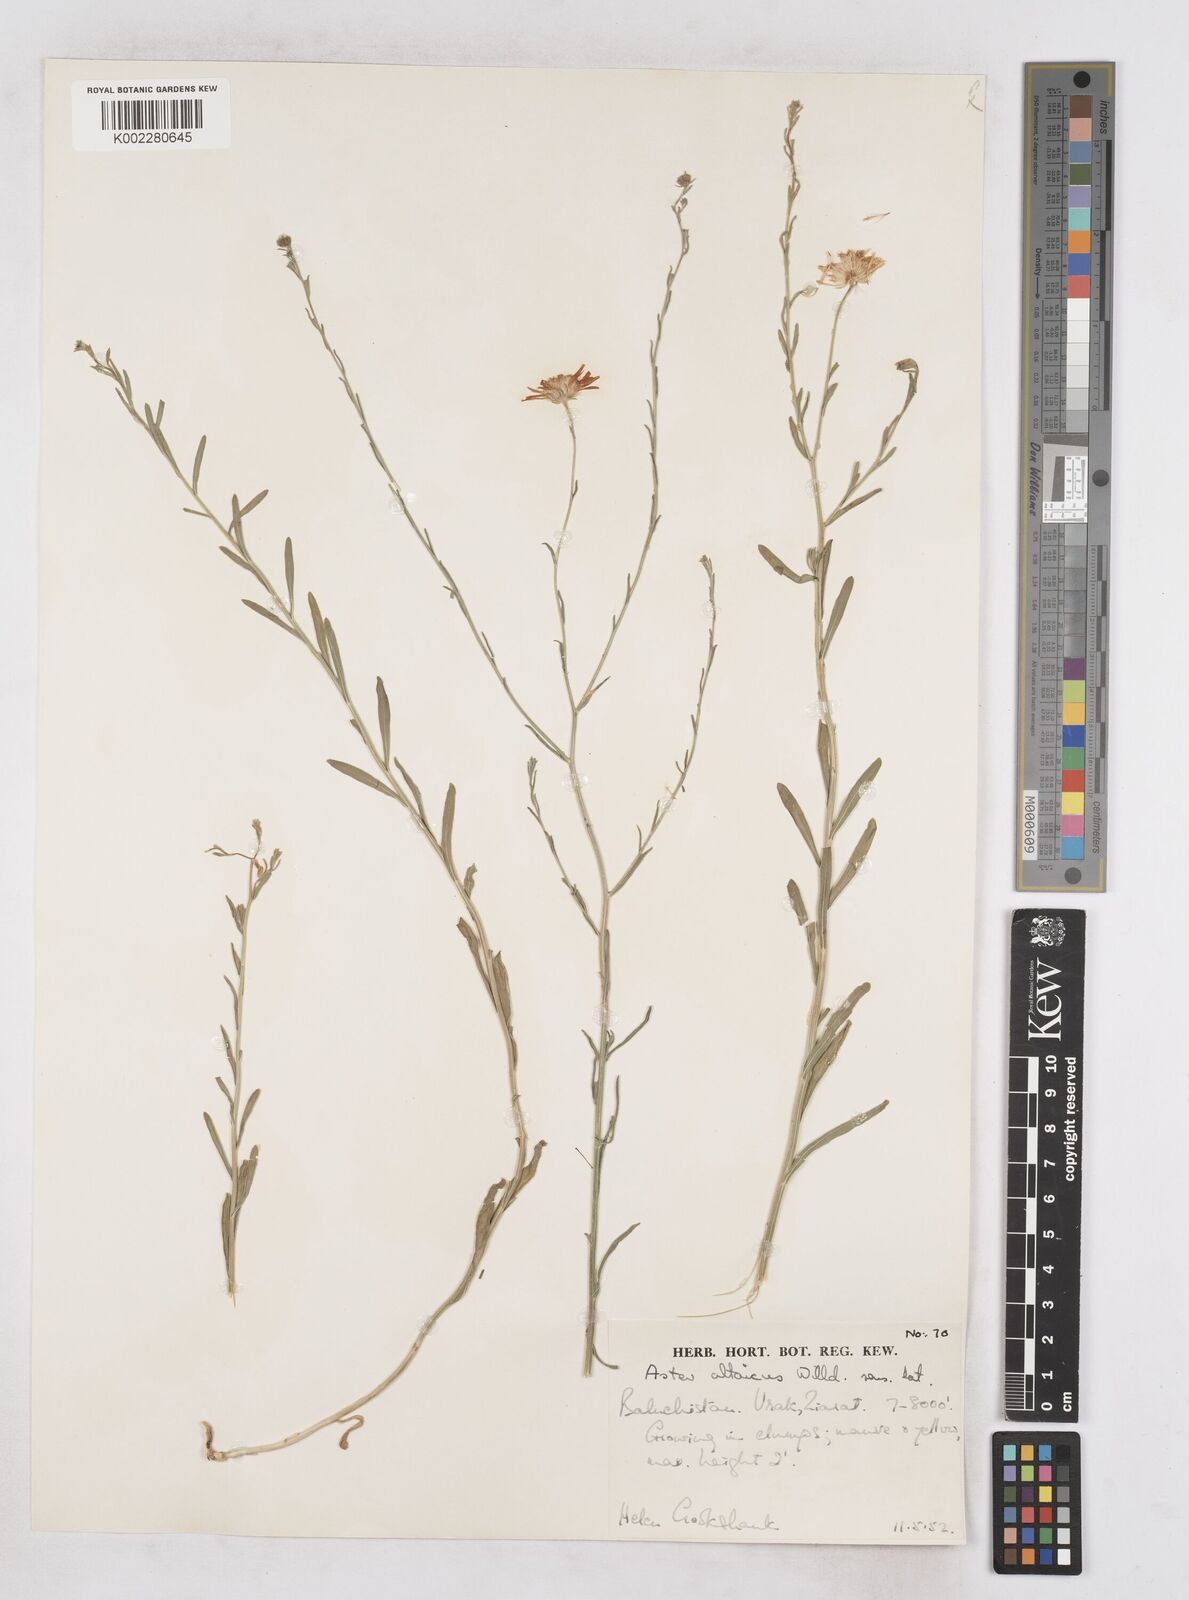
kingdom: Plantae
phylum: Tracheophyta
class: Magnoliopsida
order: Asterales
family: Asteraceae
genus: Heteropappus
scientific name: Heteropappus altaicus
